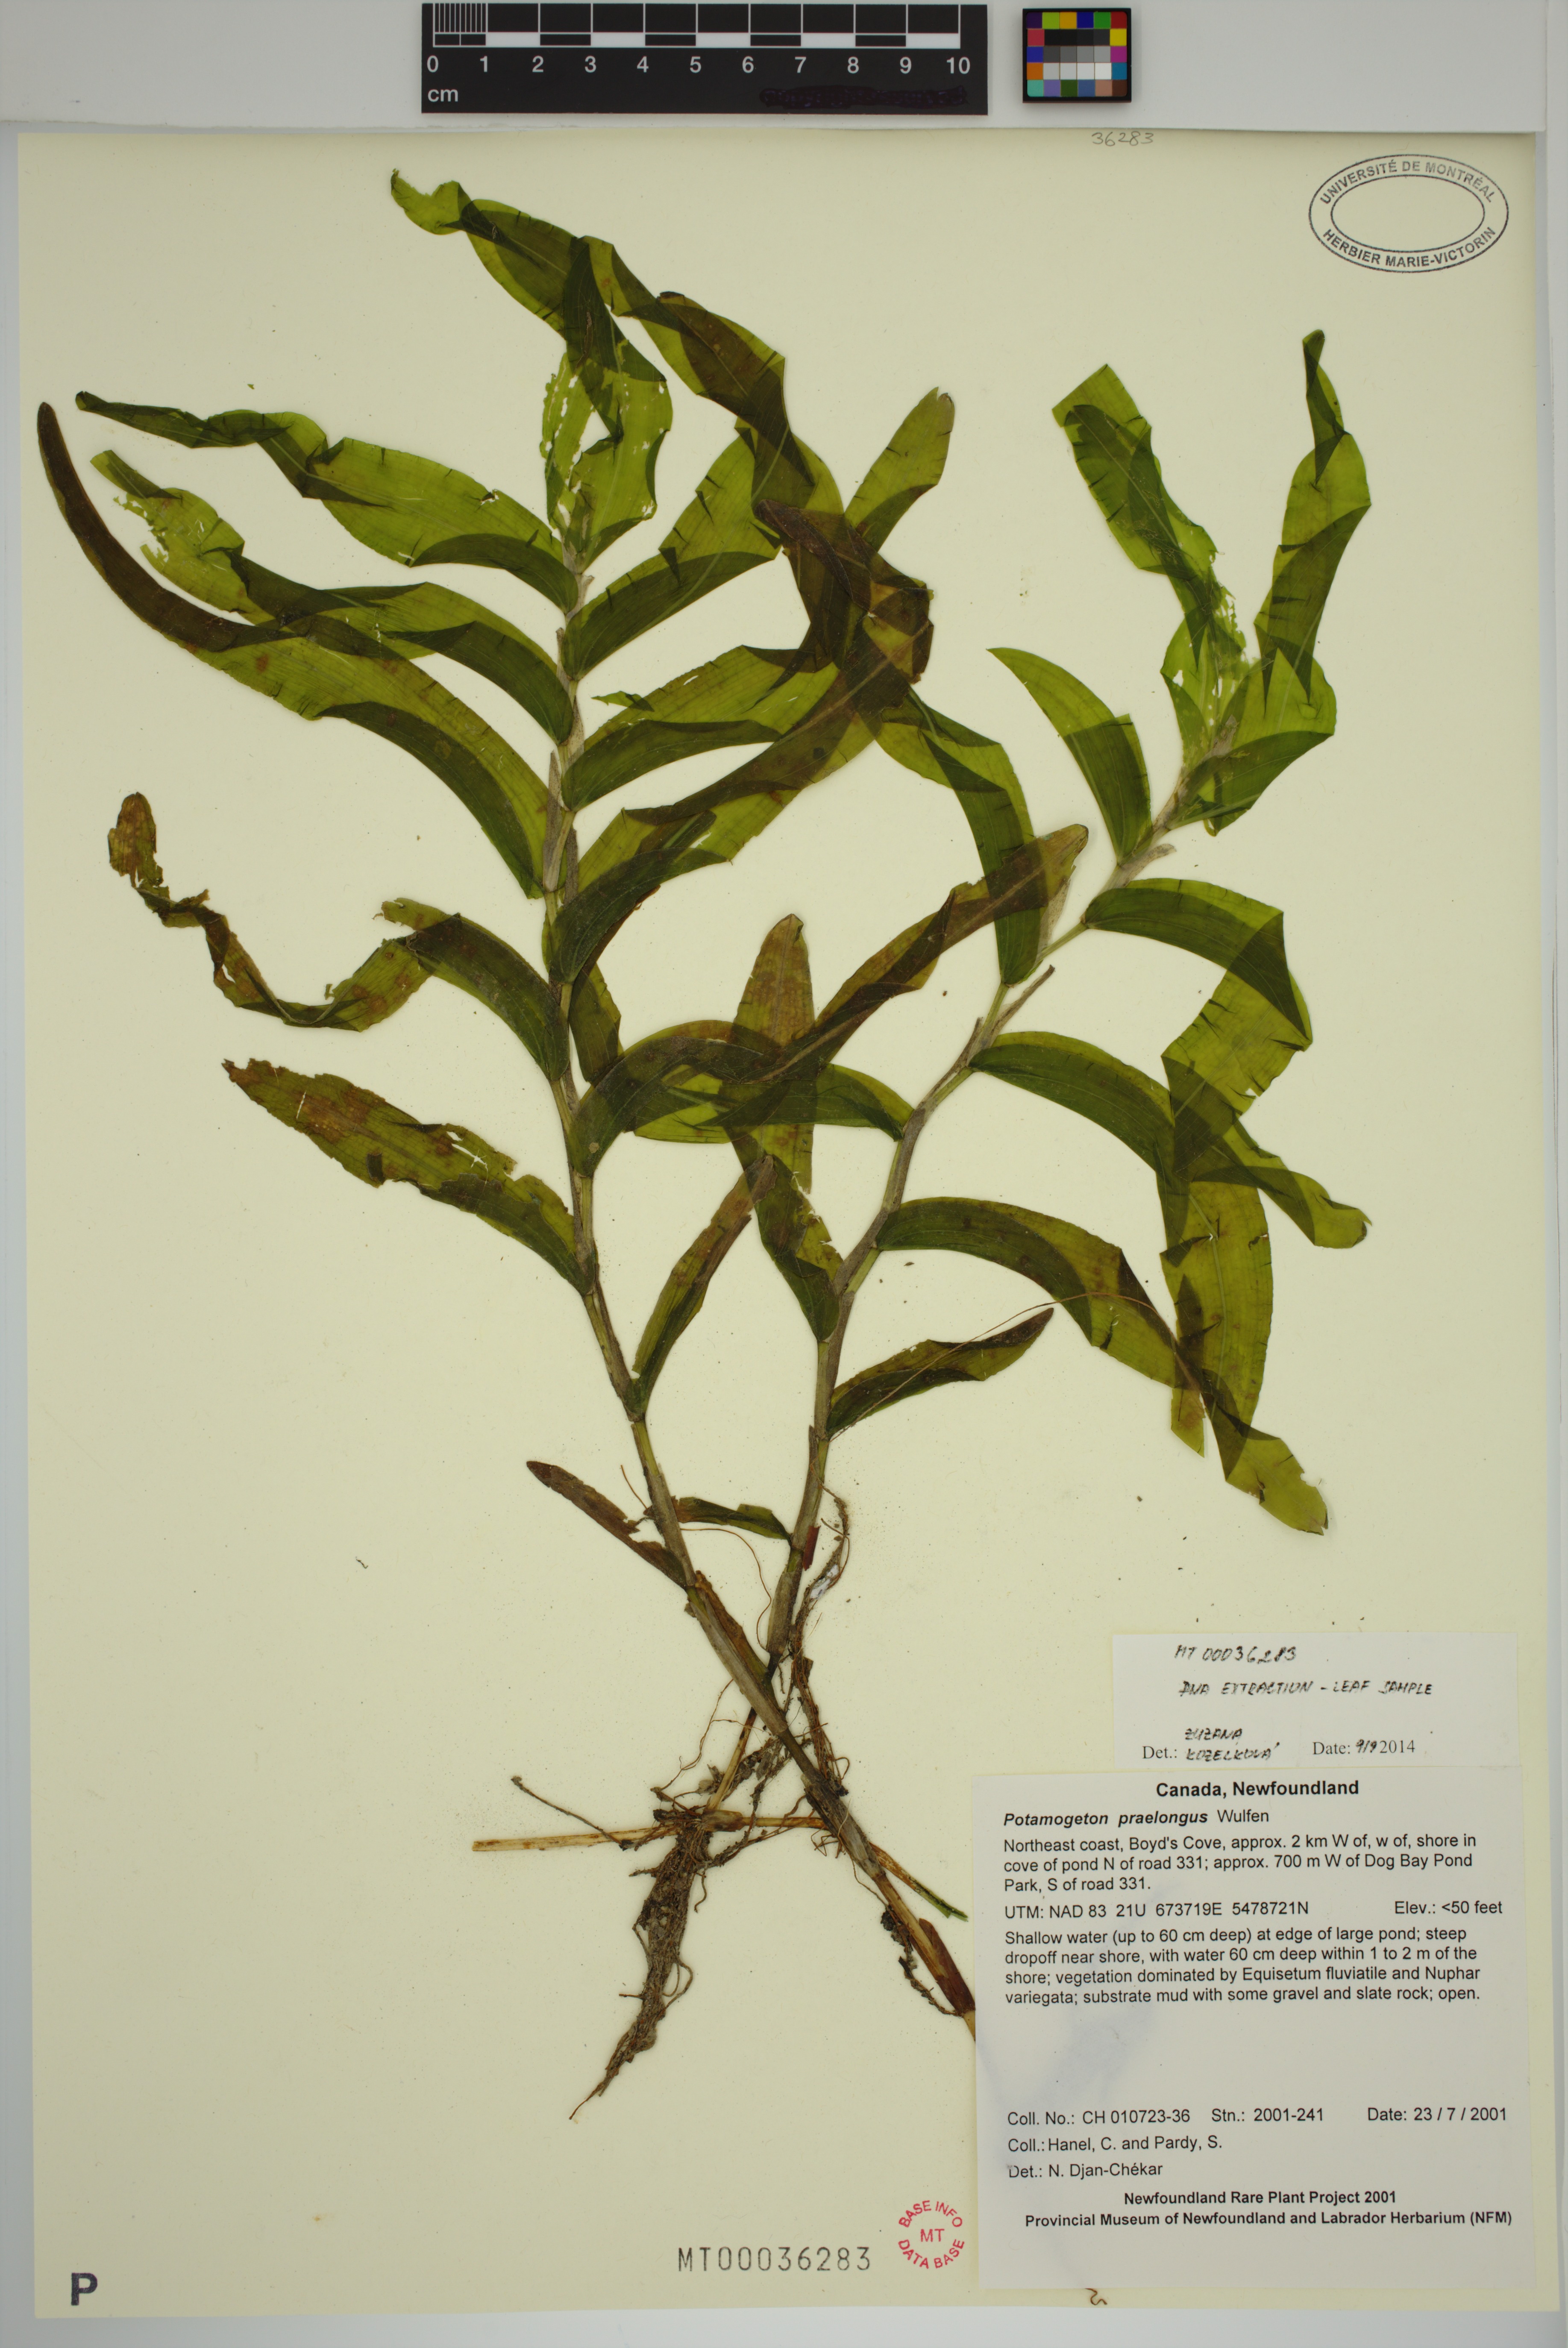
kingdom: Plantae
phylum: Tracheophyta
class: Liliopsida
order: Alismatales
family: Potamogetonaceae
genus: Potamogeton
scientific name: Potamogeton praelongus
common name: Long-stalked pondweed
